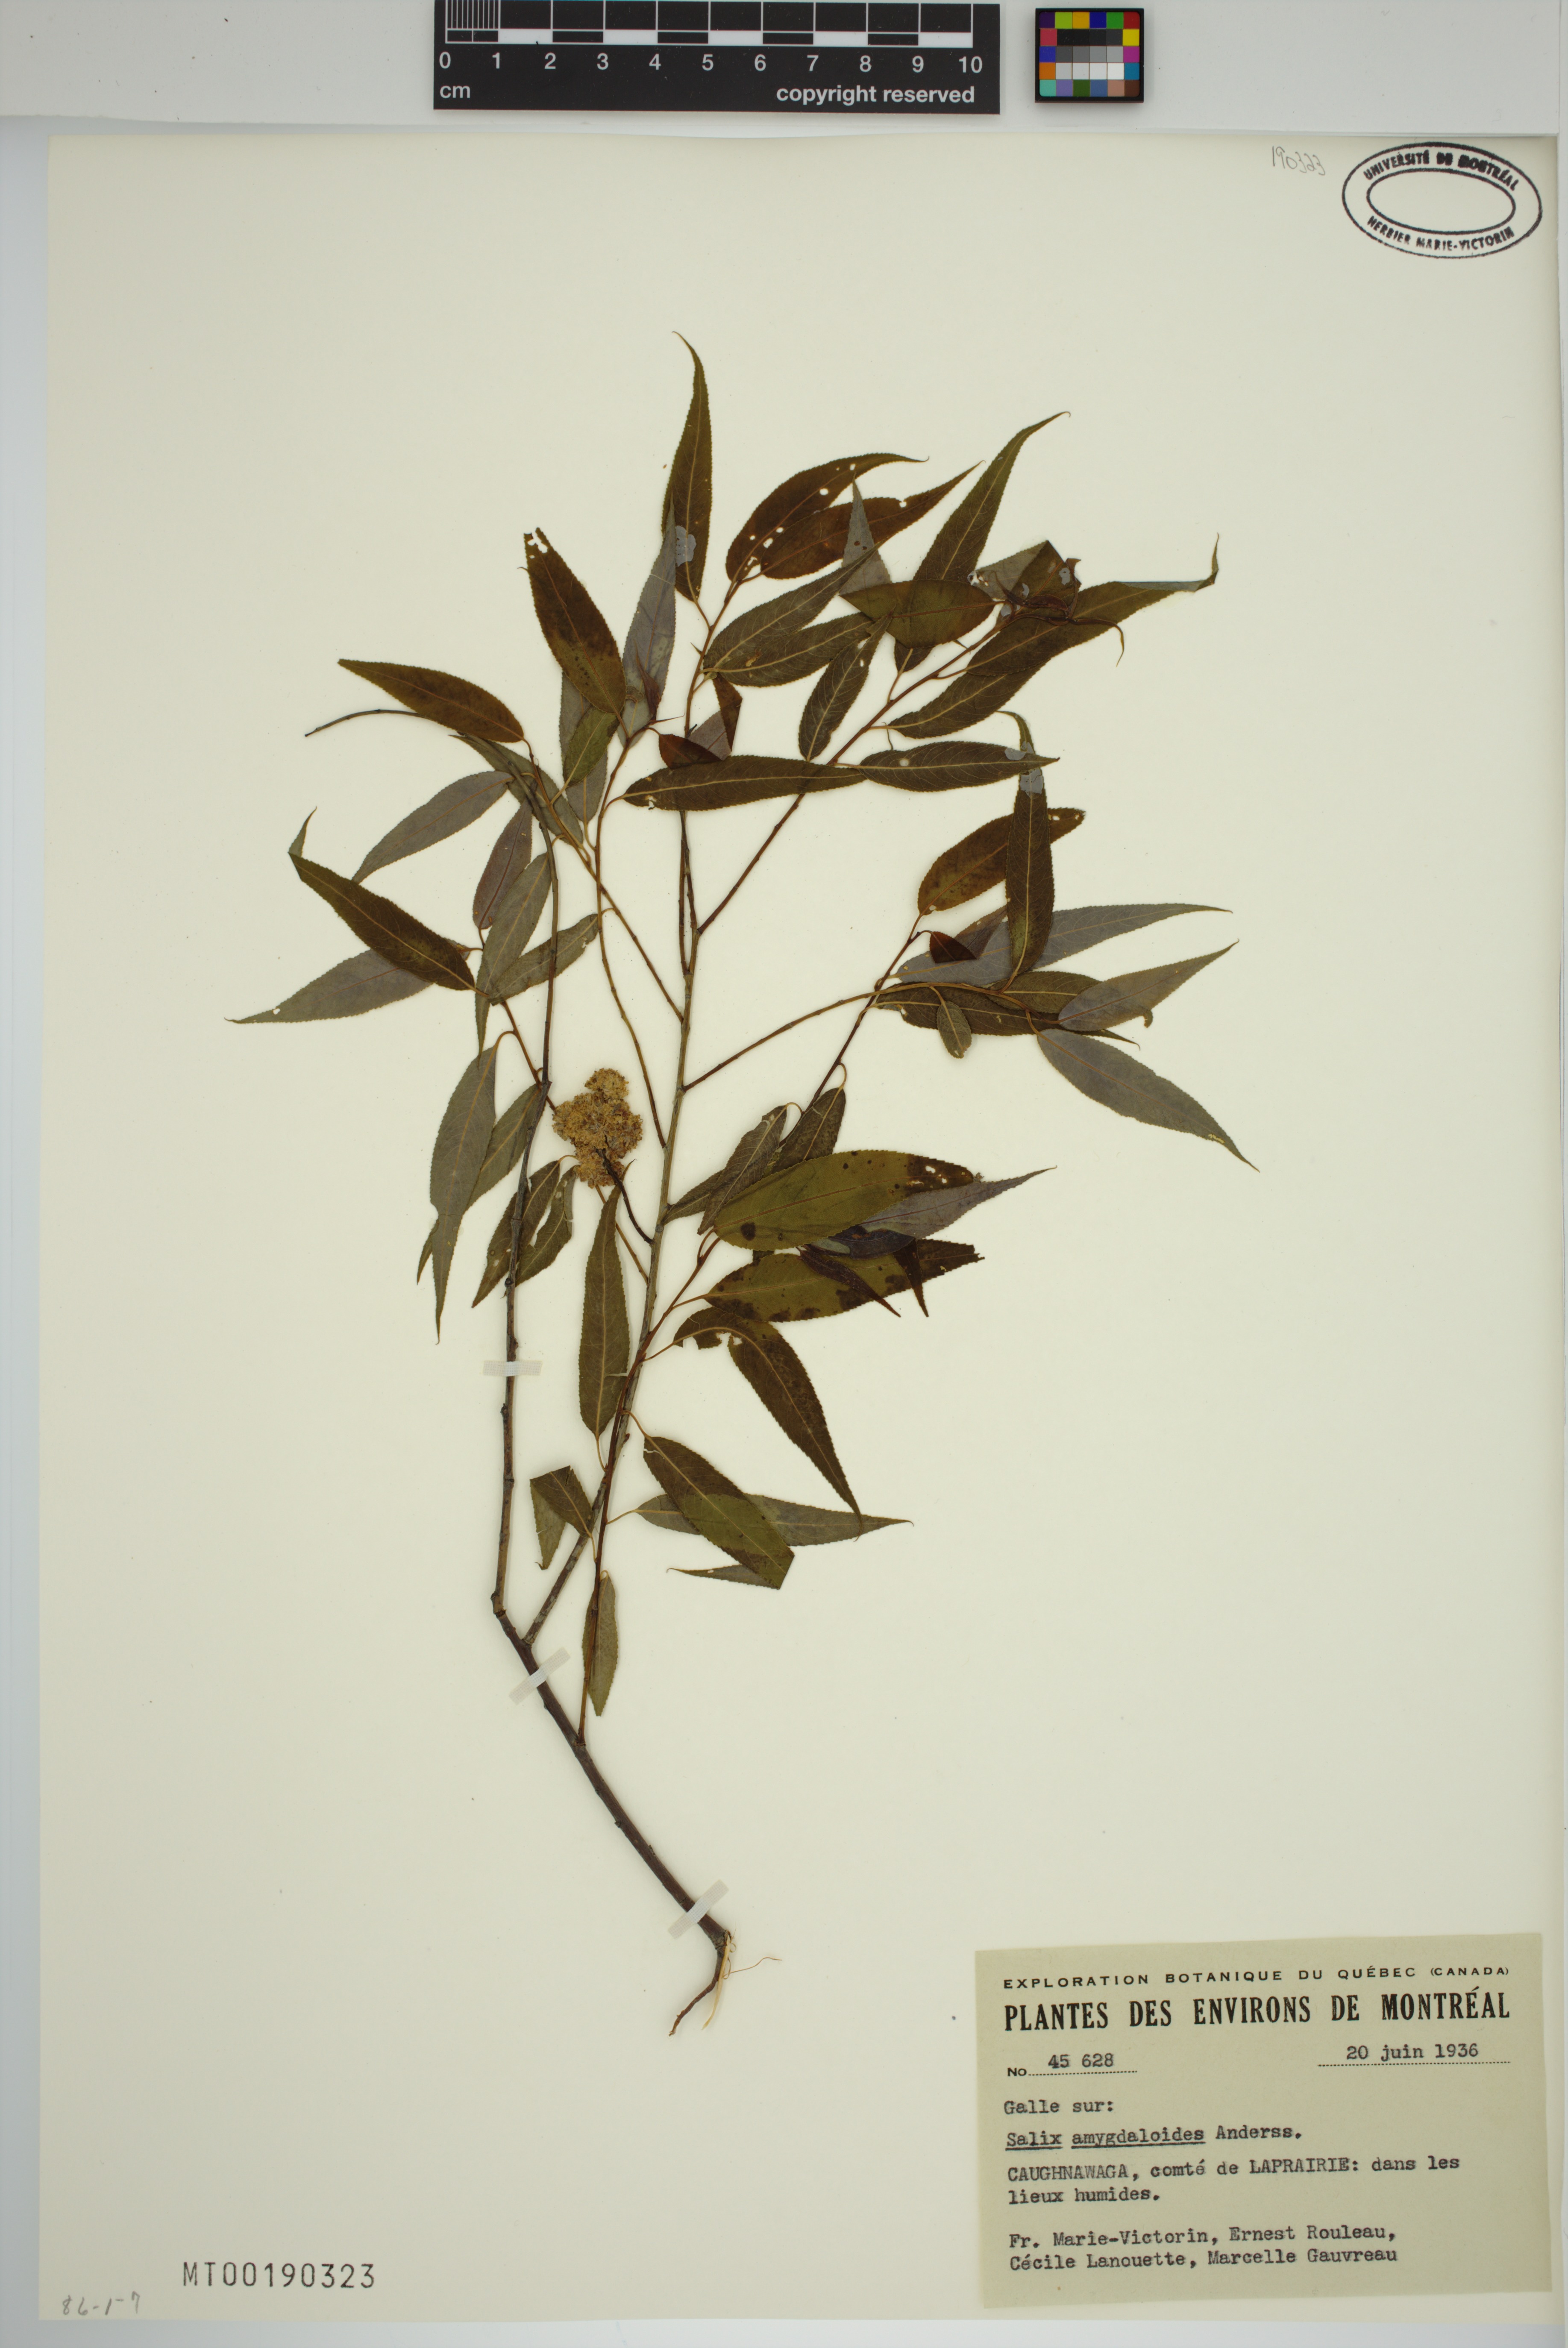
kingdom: Plantae
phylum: Tracheophyta
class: Magnoliopsida
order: Malpighiales
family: Salicaceae
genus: Salix
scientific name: Salix amygdaloides
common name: Peach leaf willow
